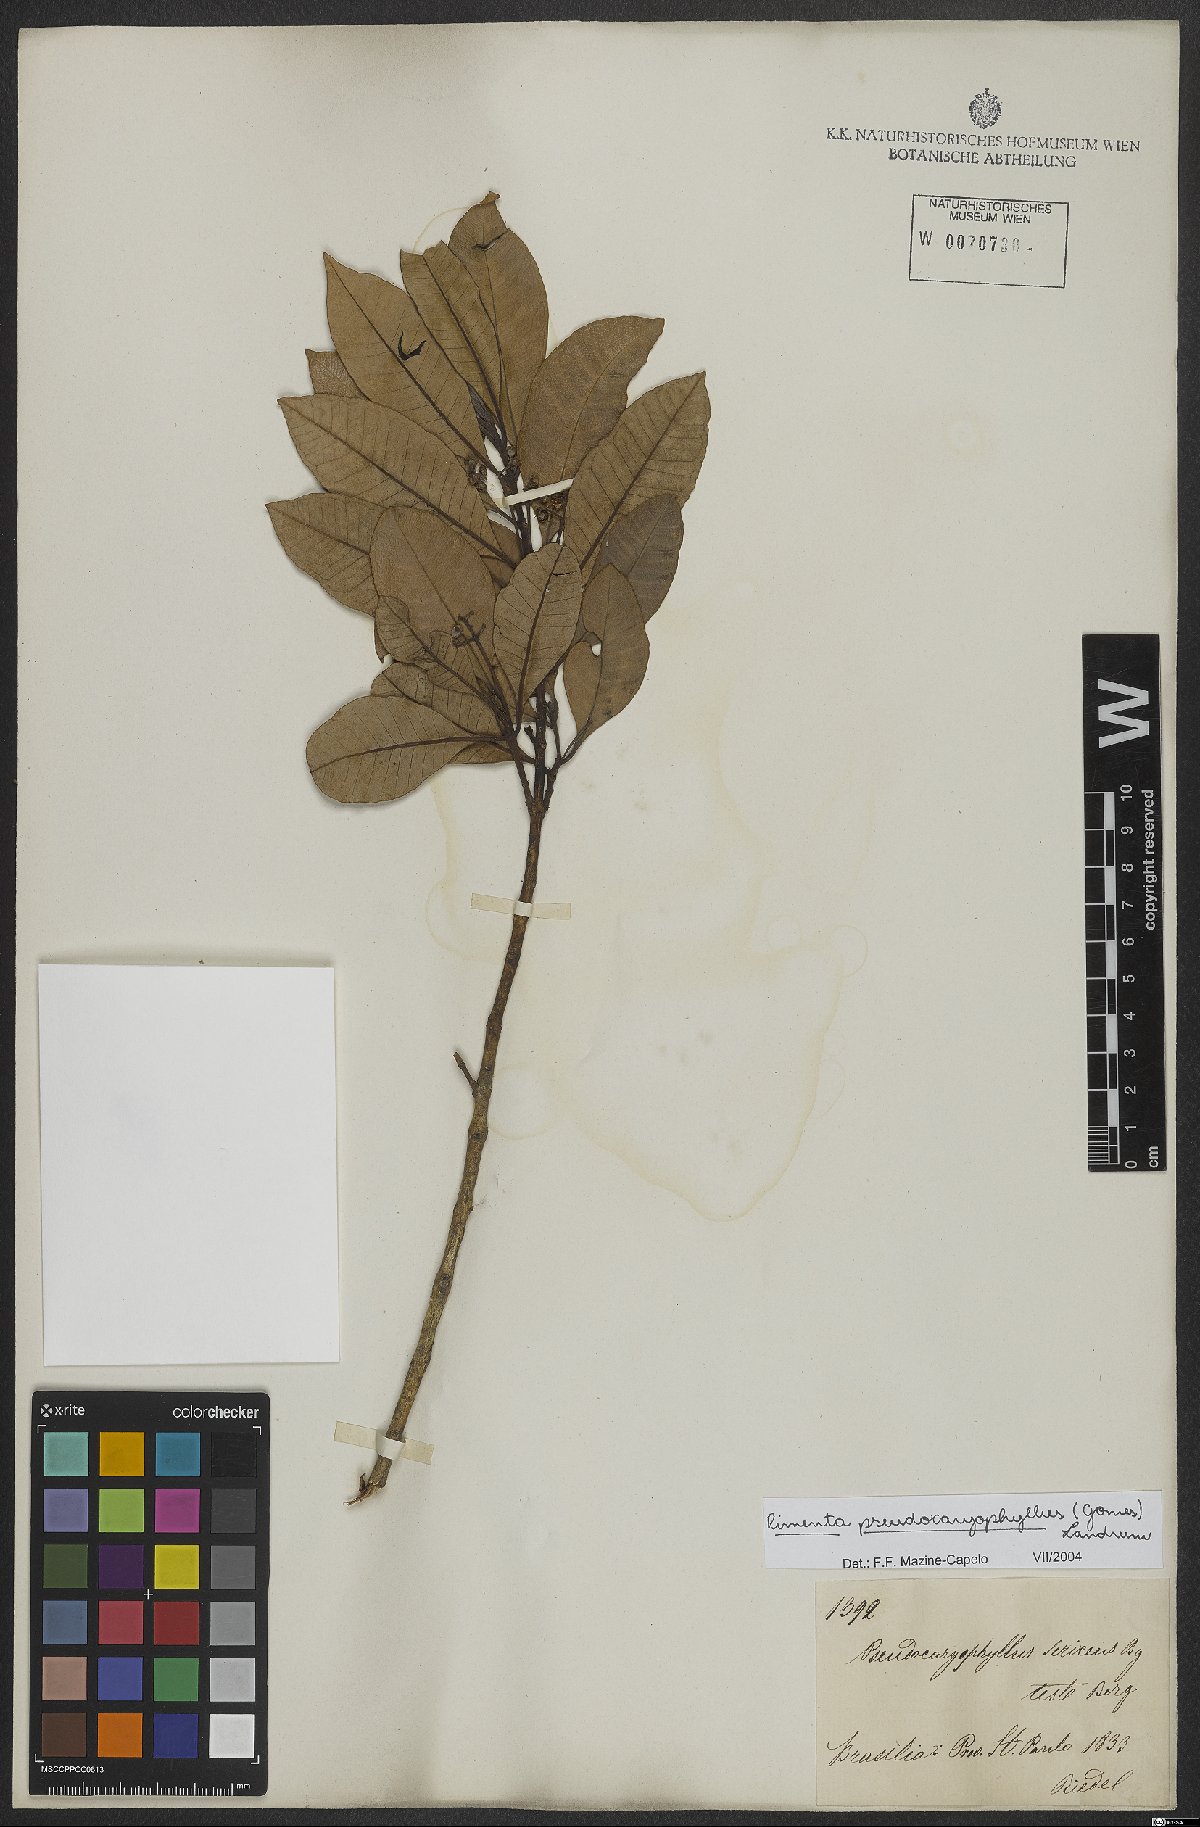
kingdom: Plantae
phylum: Tracheophyta
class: Magnoliopsida
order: Myrtales
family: Myrtaceae
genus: Pimenta
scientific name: Pimenta pseudocaryophyllus
